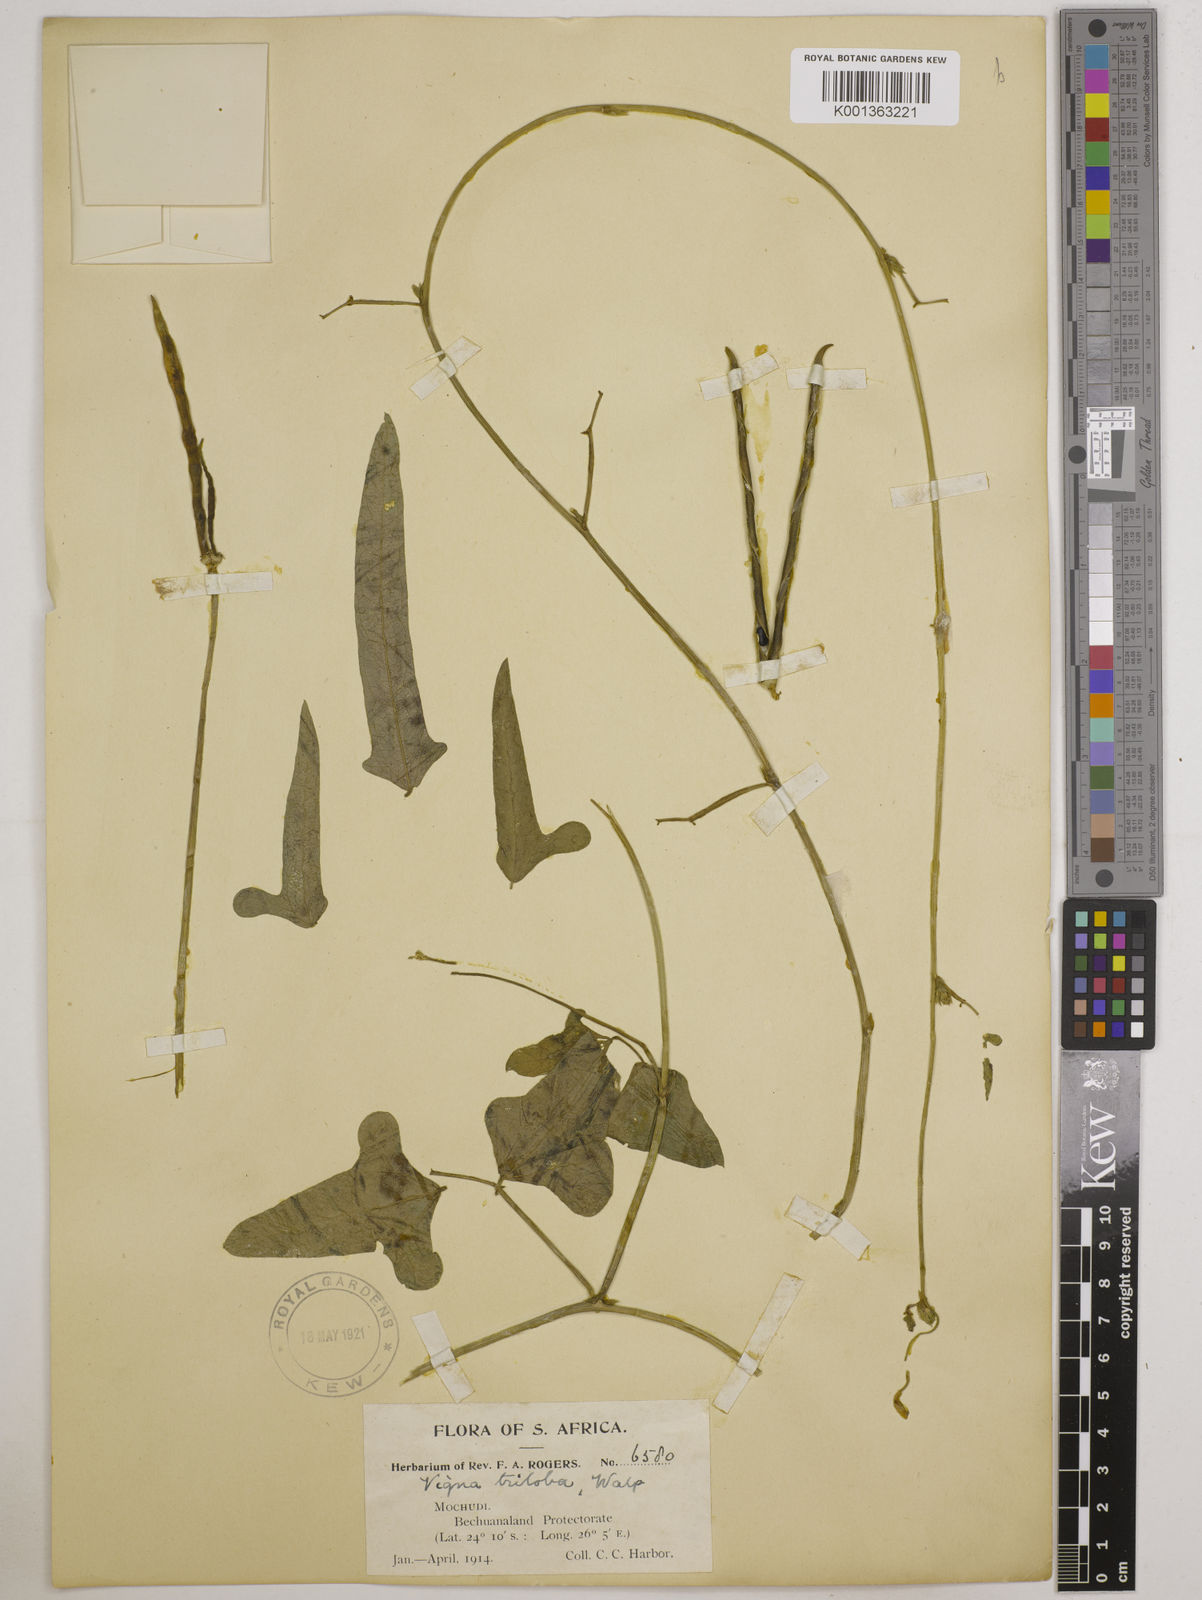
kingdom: Plantae
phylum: Tracheophyta
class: Magnoliopsida
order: Fabales
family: Fabaceae
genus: Vigna
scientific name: Vigna unguiculata
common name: Cowpea
